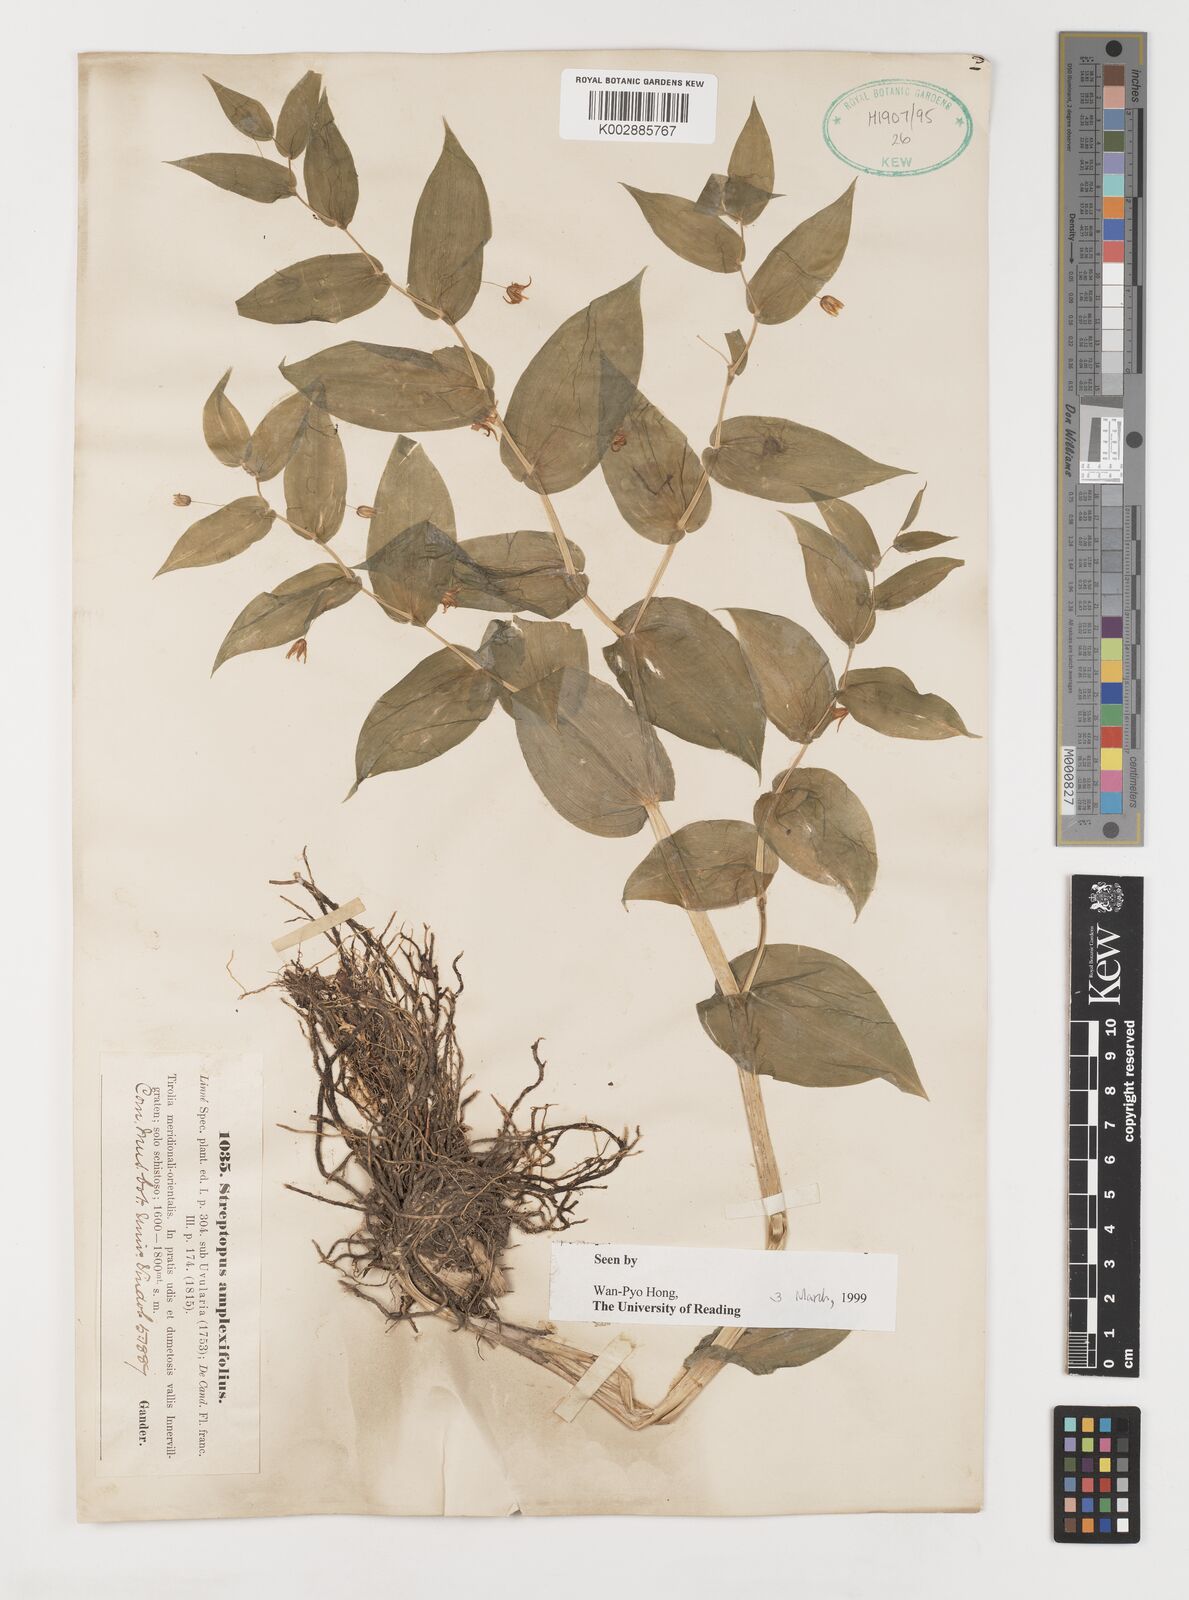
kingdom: Plantae
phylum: Tracheophyta
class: Liliopsida
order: Liliales
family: Liliaceae
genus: Streptopus
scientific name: Streptopus amplexifolius
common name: Clasp twisted stalk
